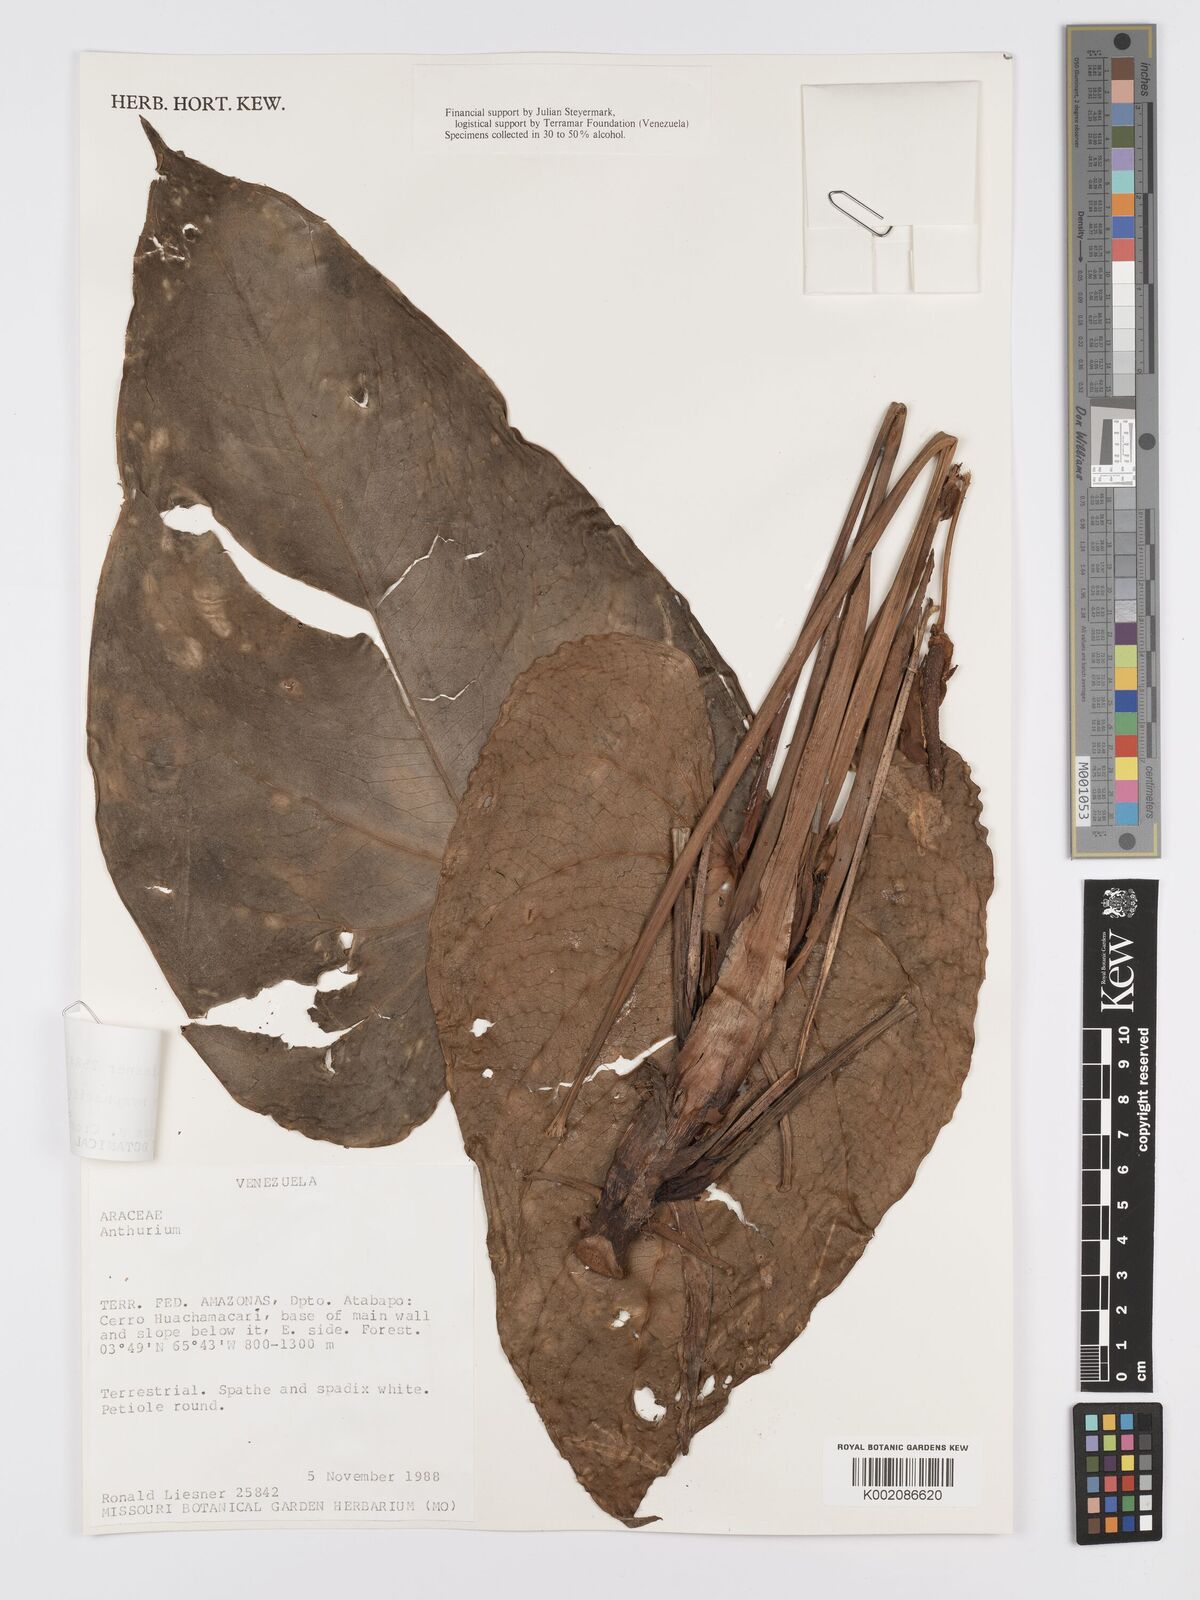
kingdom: Plantae
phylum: Tracheophyta
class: Liliopsida
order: Alismatales
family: Araceae
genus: Anthurium
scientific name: Anthurium nymphaeifolium
